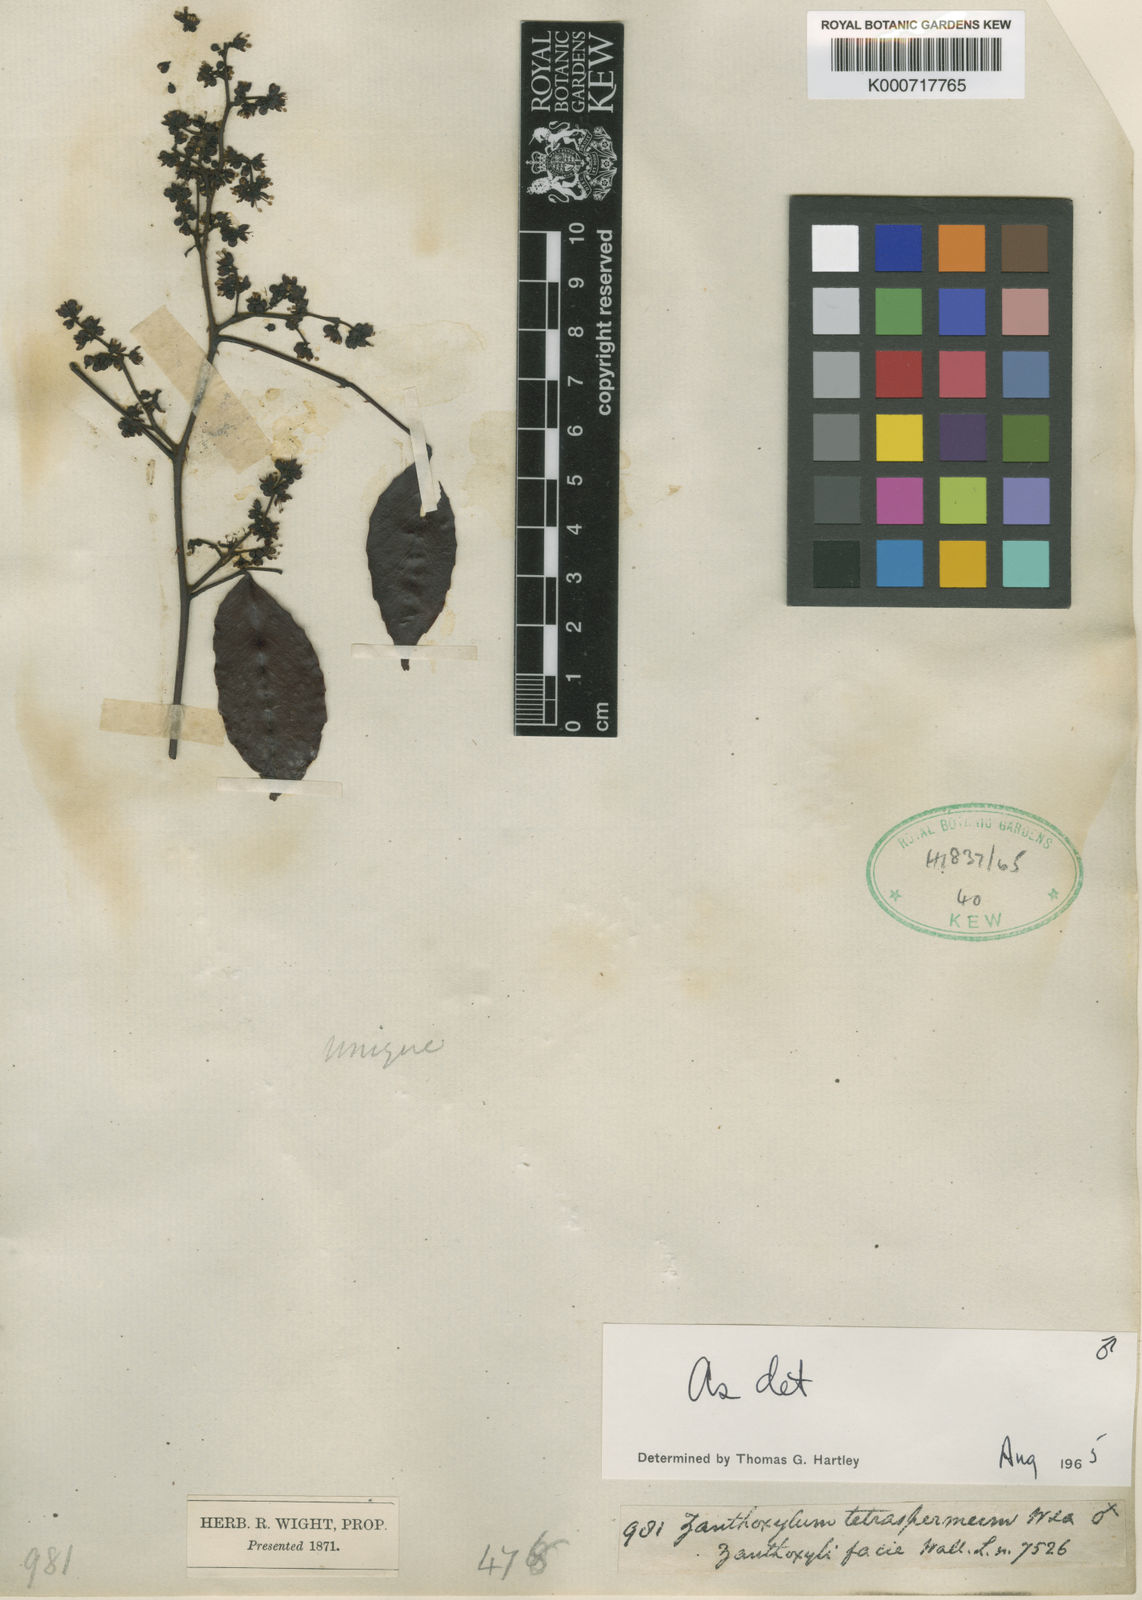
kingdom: Plantae
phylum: Tracheophyta
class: Magnoliopsida
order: Sapindales
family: Rutaceae
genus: Zanthoxylum
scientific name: Zanthoxylum tetraspermum
